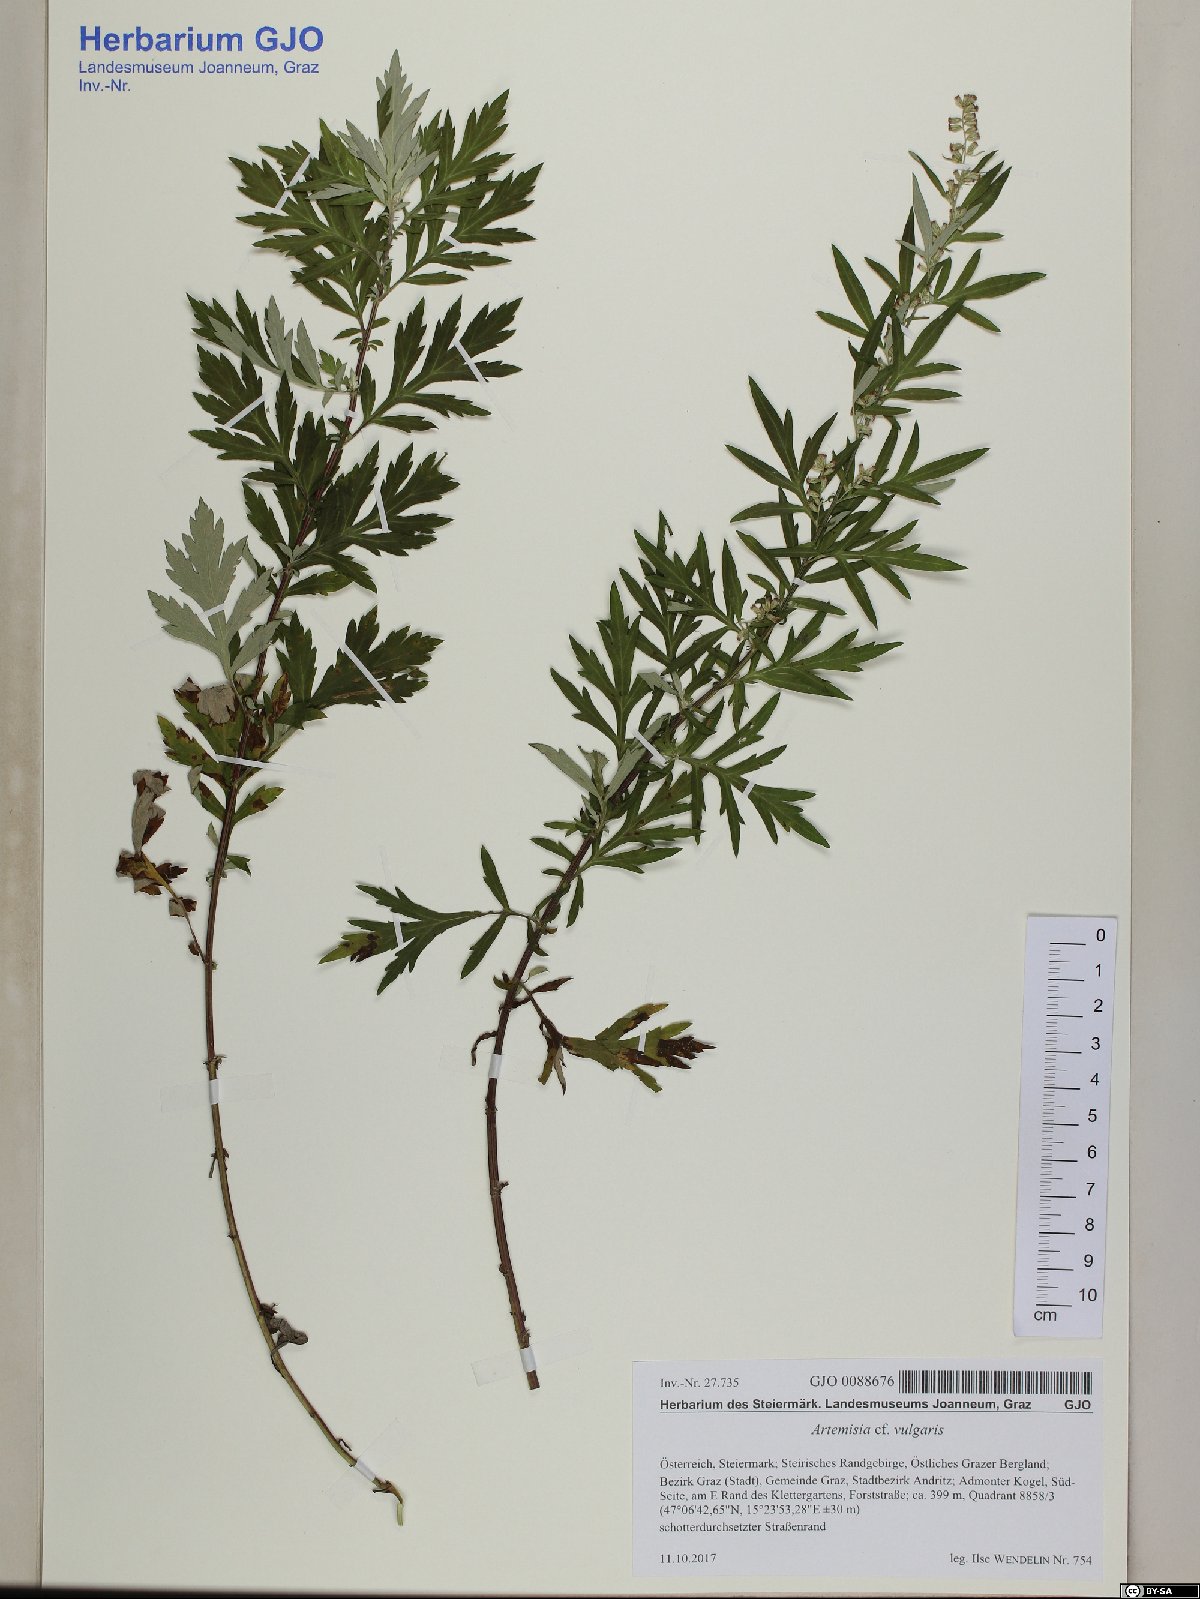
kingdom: Plantae
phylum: Tracheophyta
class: Magnoliopsida
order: Asterales
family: Asteraceae
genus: Artemisia
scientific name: Artemisia vulgaris
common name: Mugwort
